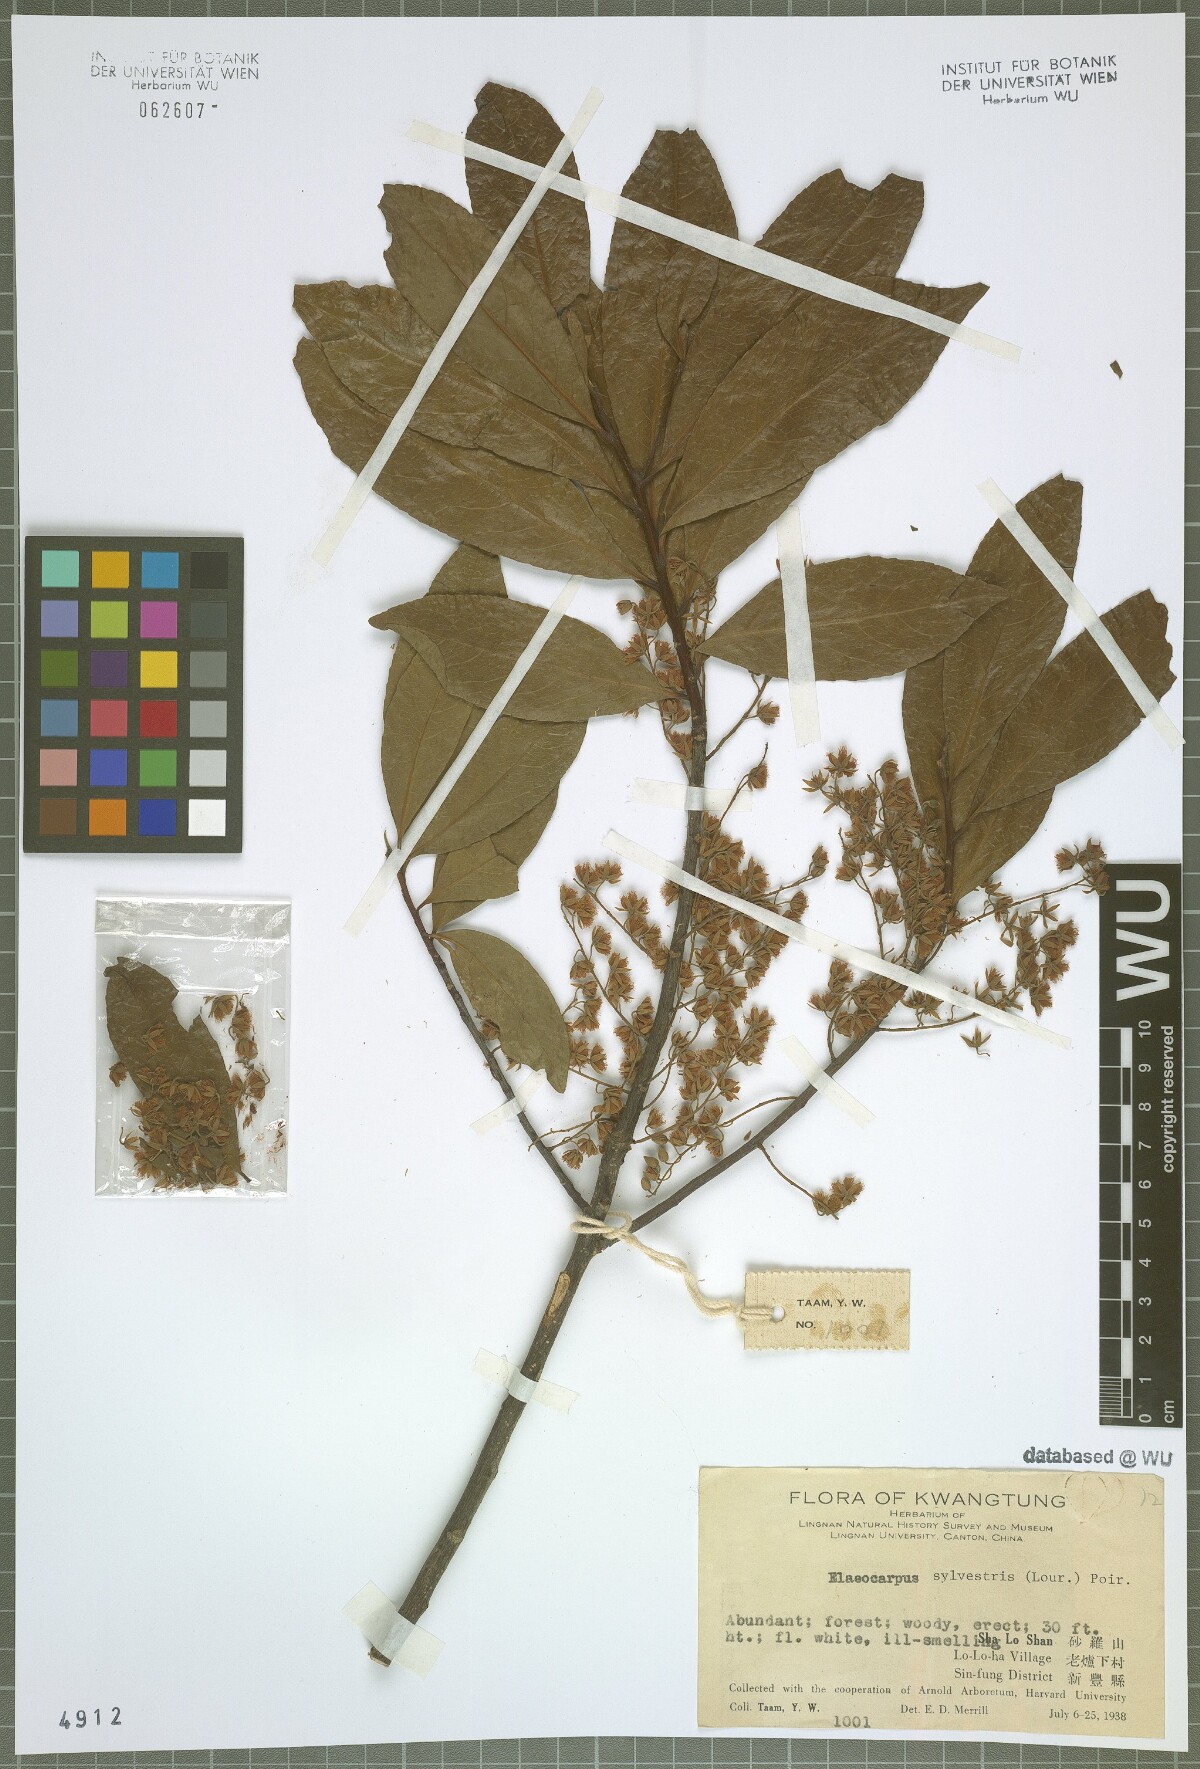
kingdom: Plantae
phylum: Tracheophyta
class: Magnoliopsida
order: Oxalidales
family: Elaeocarpaceae
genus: Elaeocarpus
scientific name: Elaeocarpus sylvestris
